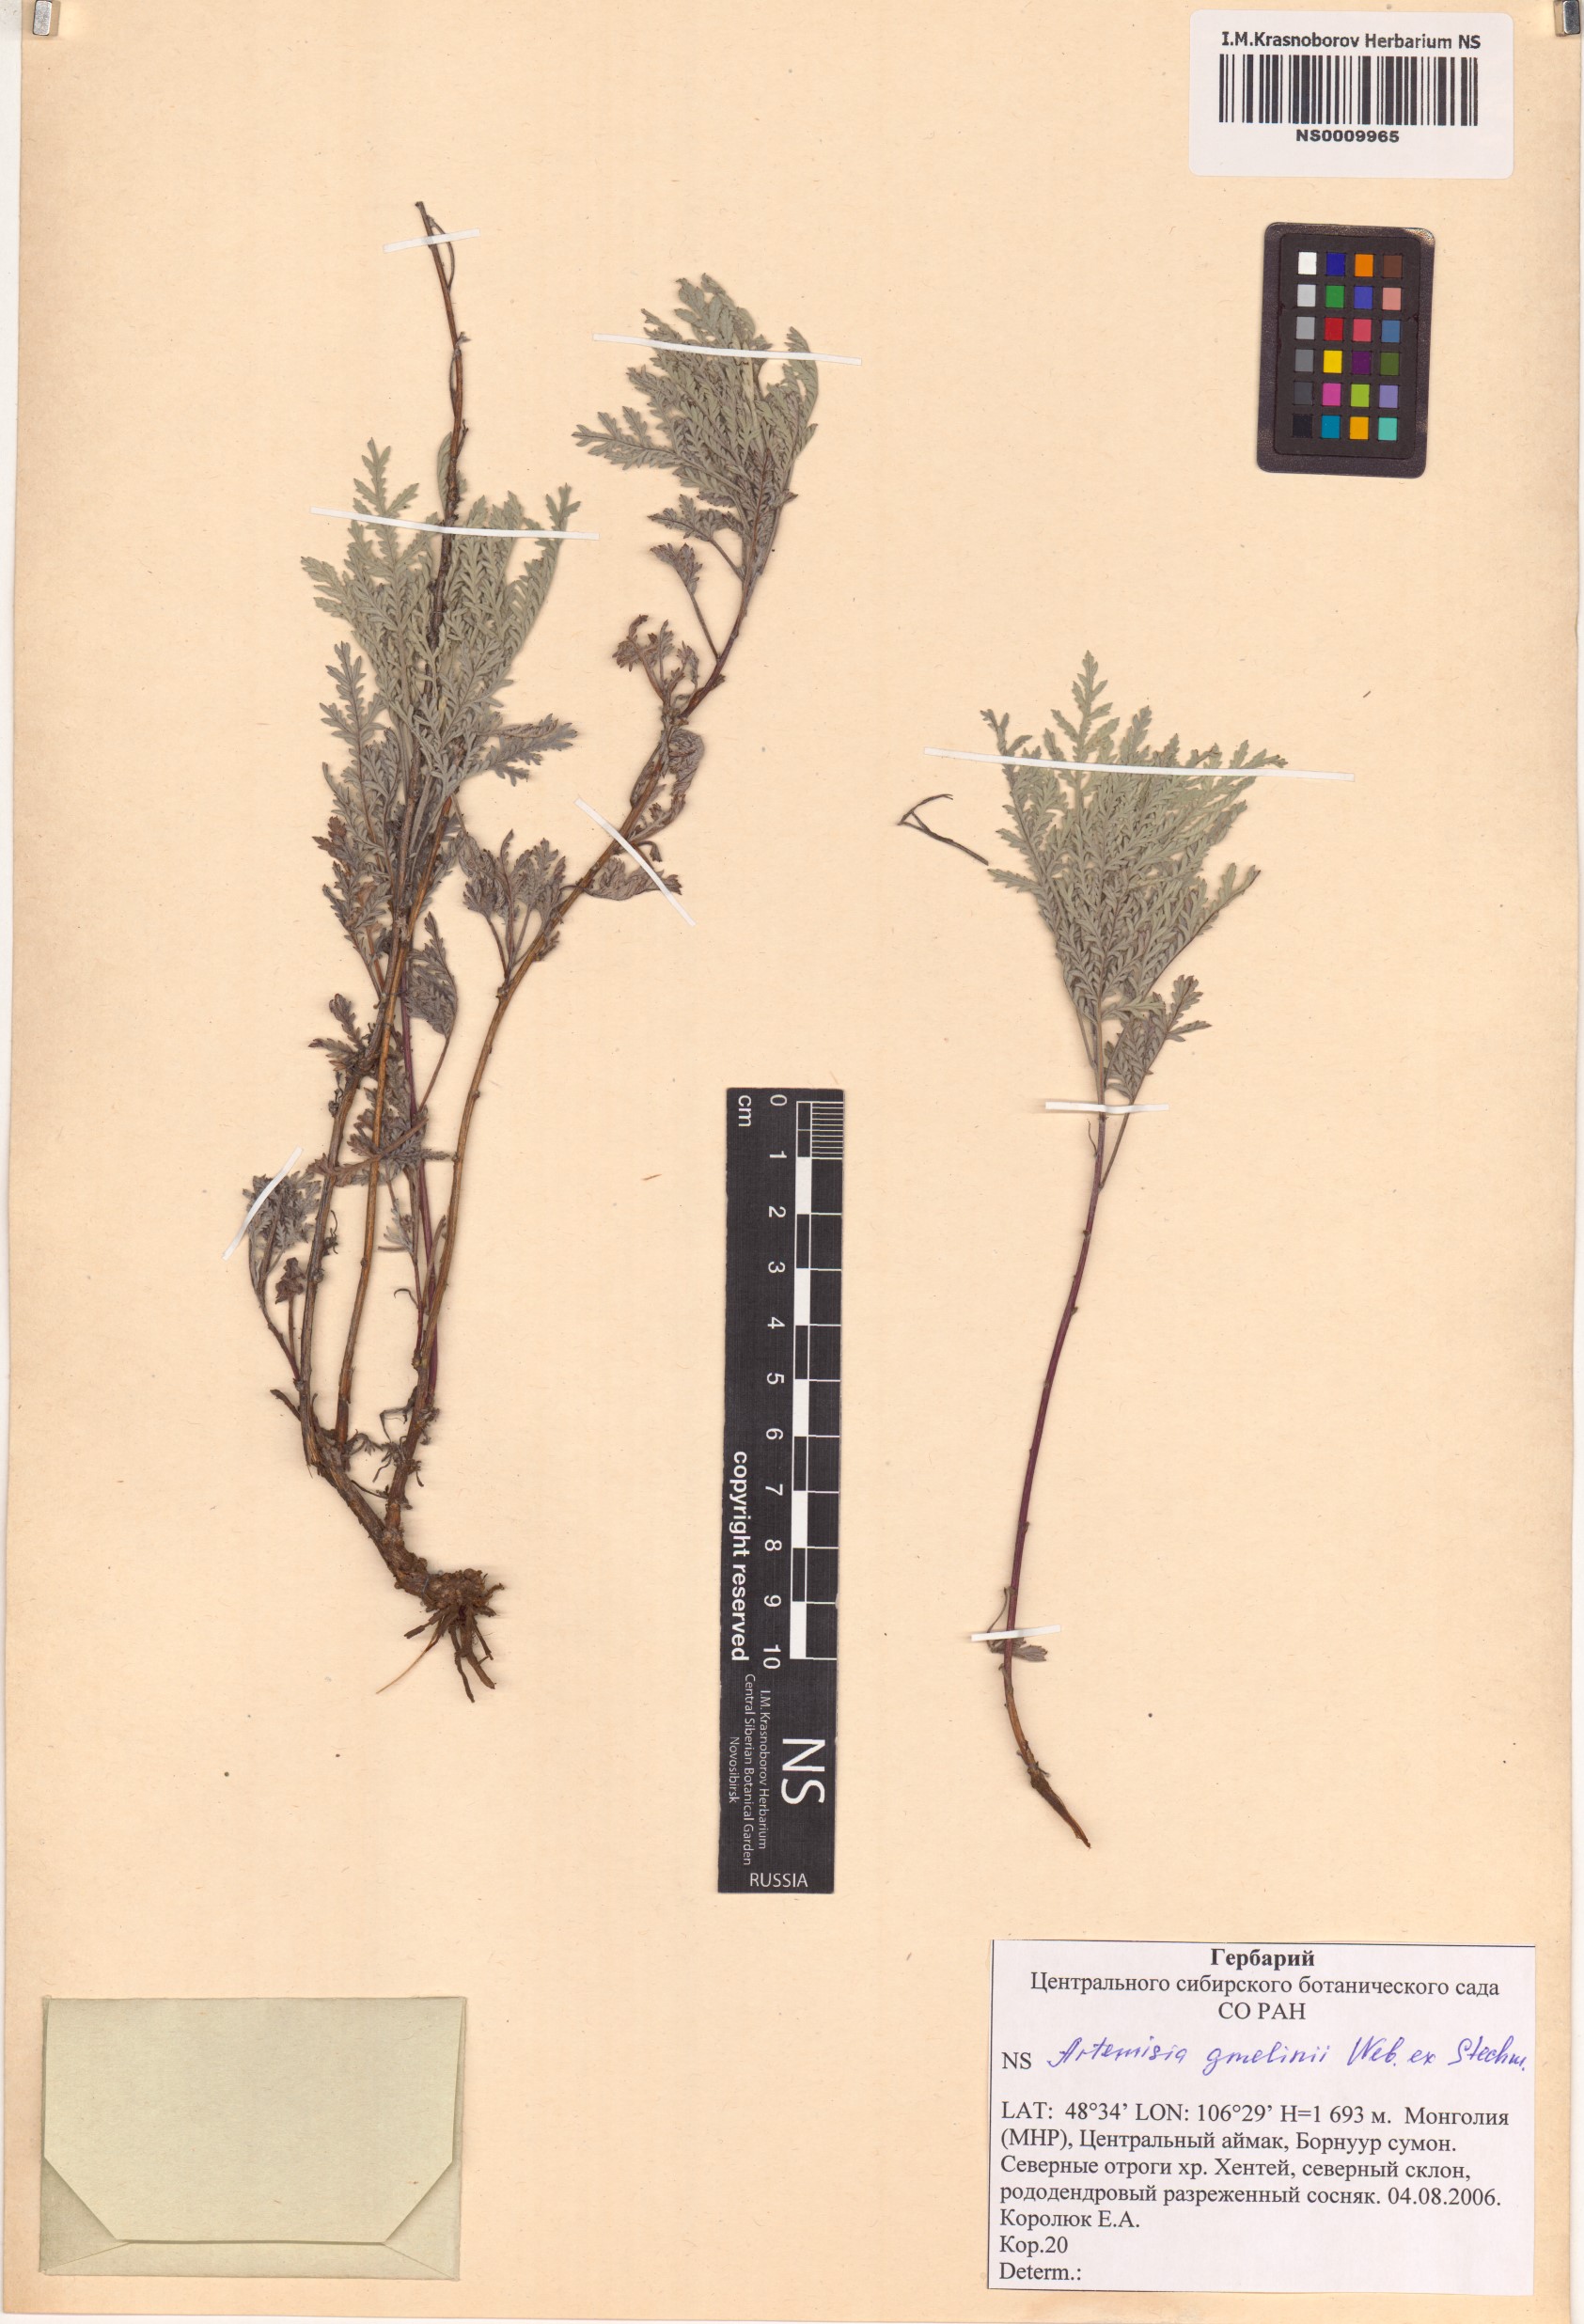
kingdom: Plantae
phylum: Tracheophyta
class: Magnoliopsida
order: Asterales
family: Asteraceae
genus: Artemisia
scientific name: Artemisia gmelinii
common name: Gmelin's wormwood
